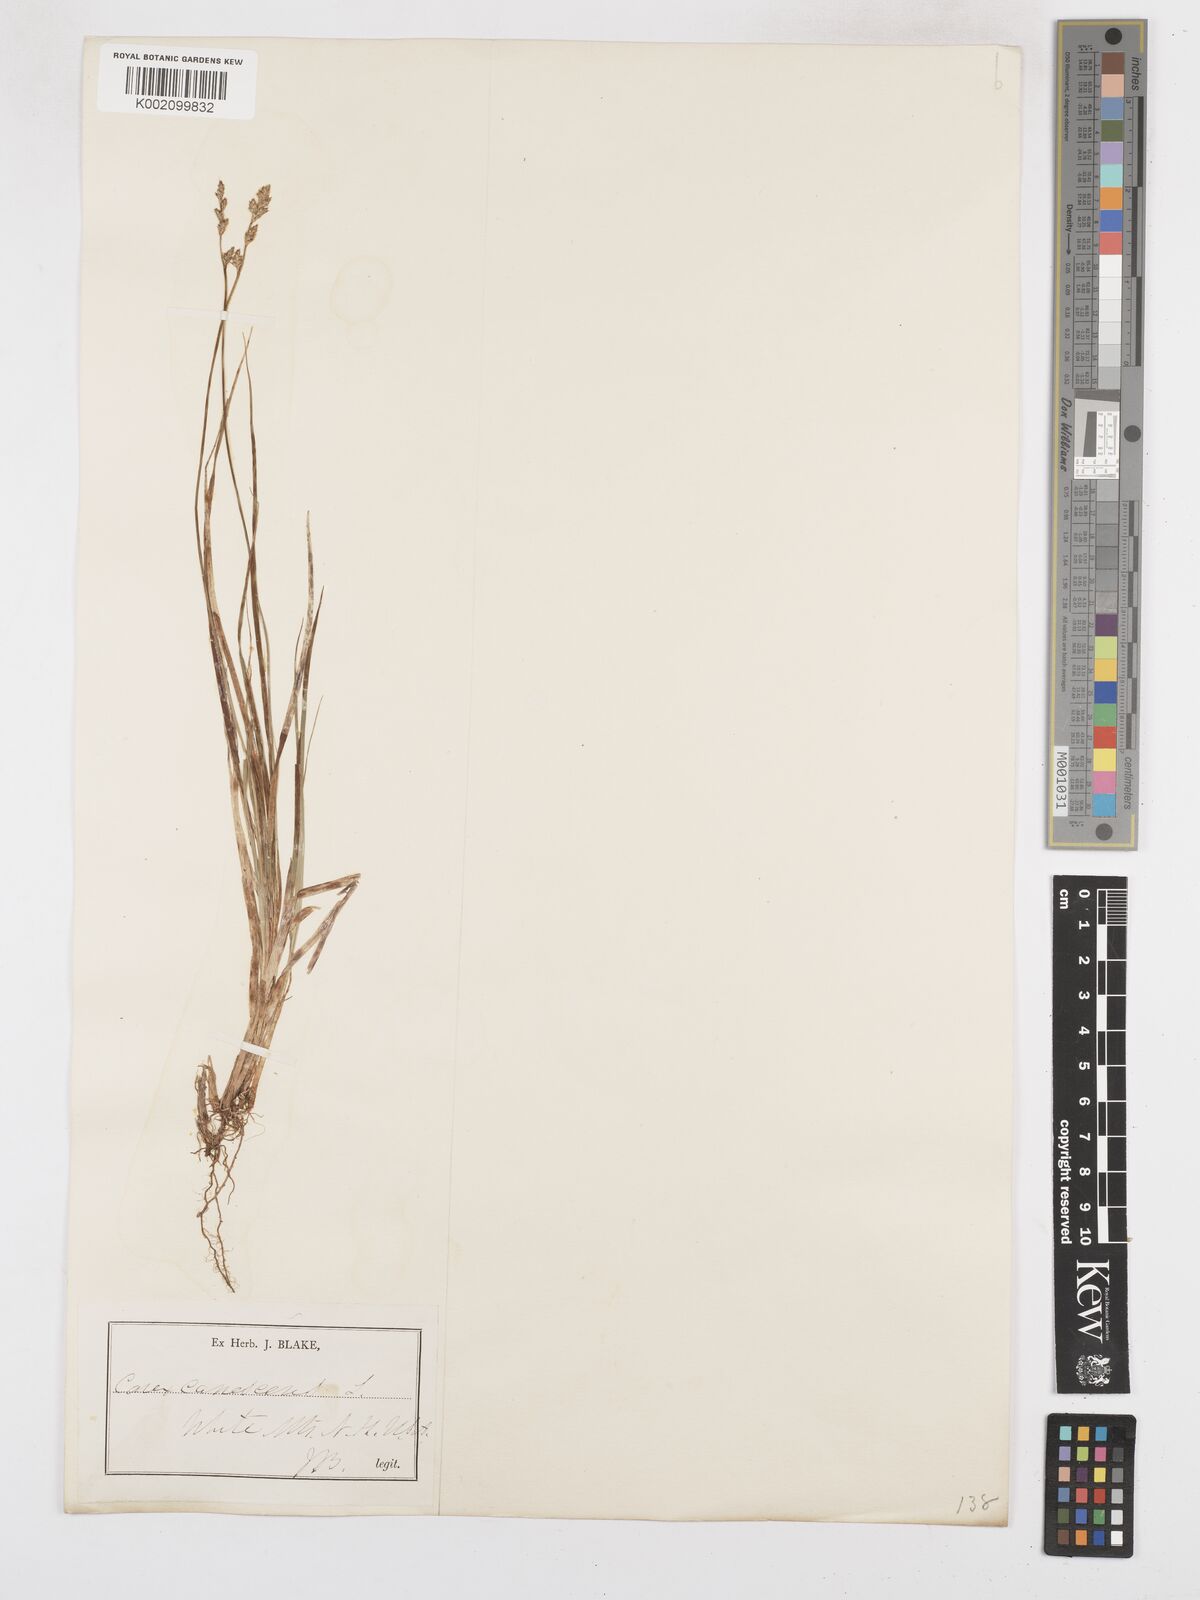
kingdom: Plantae
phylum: Tracheophyta
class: Liliopsida
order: Poales
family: Cyperaceae
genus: Carex
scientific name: Carex curta
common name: White sedge
